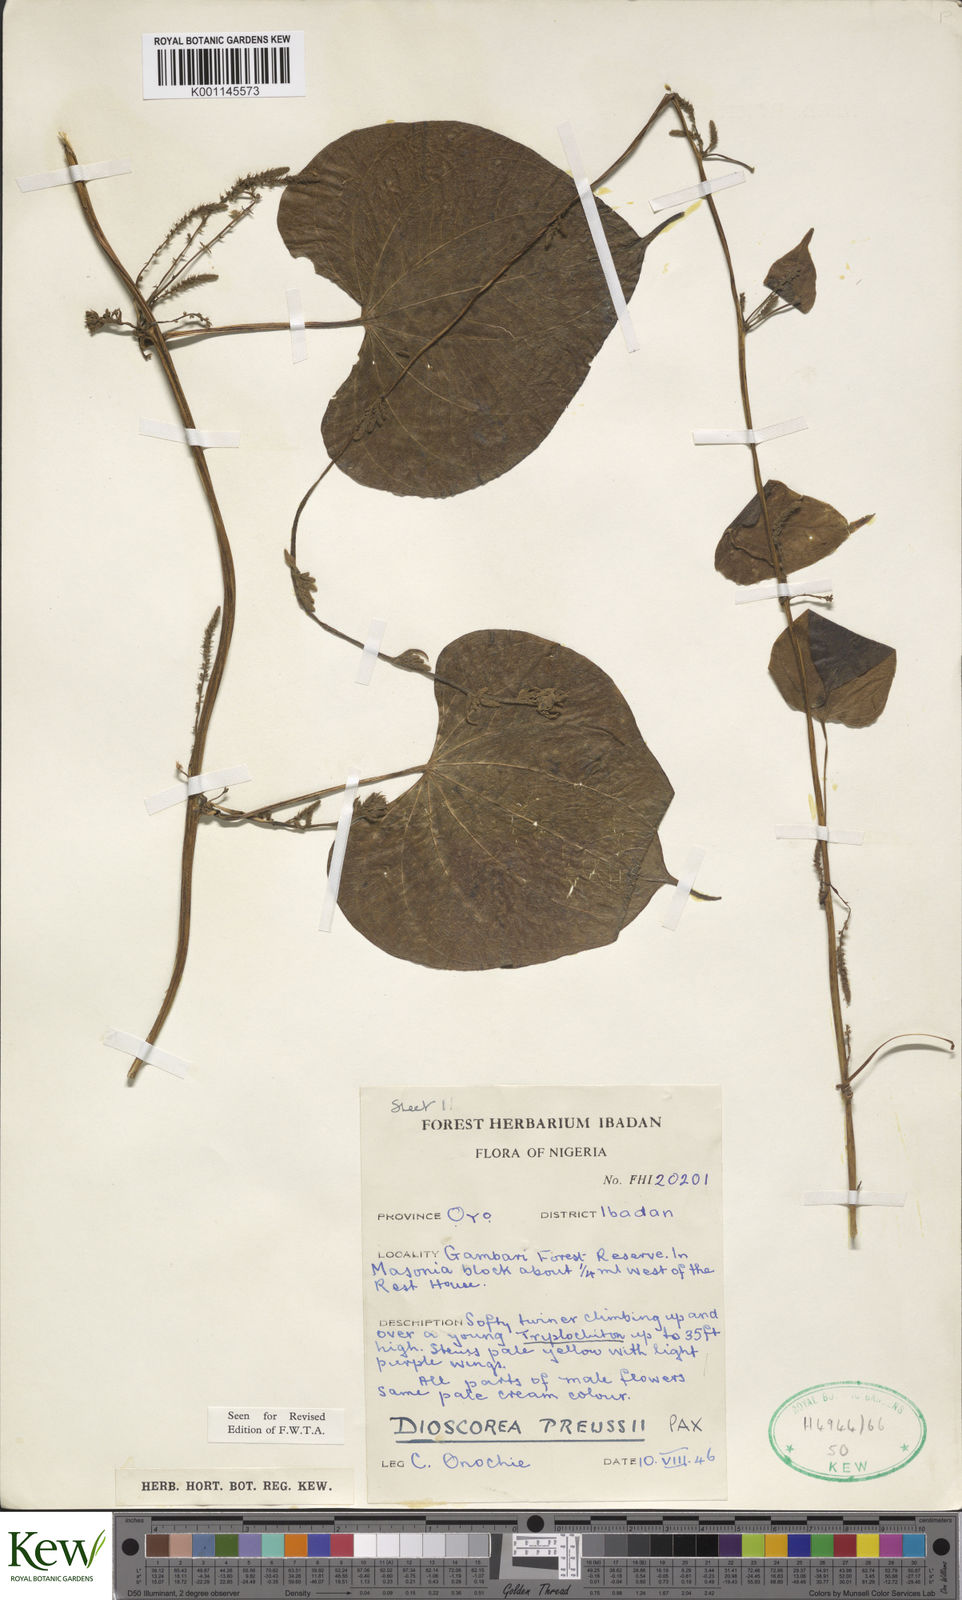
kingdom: Plantae
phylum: Tracheophyta
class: Liliopsida
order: Dioscoreales
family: Dioscoreaceae
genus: Dioscorea
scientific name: Dioscorea preussii
